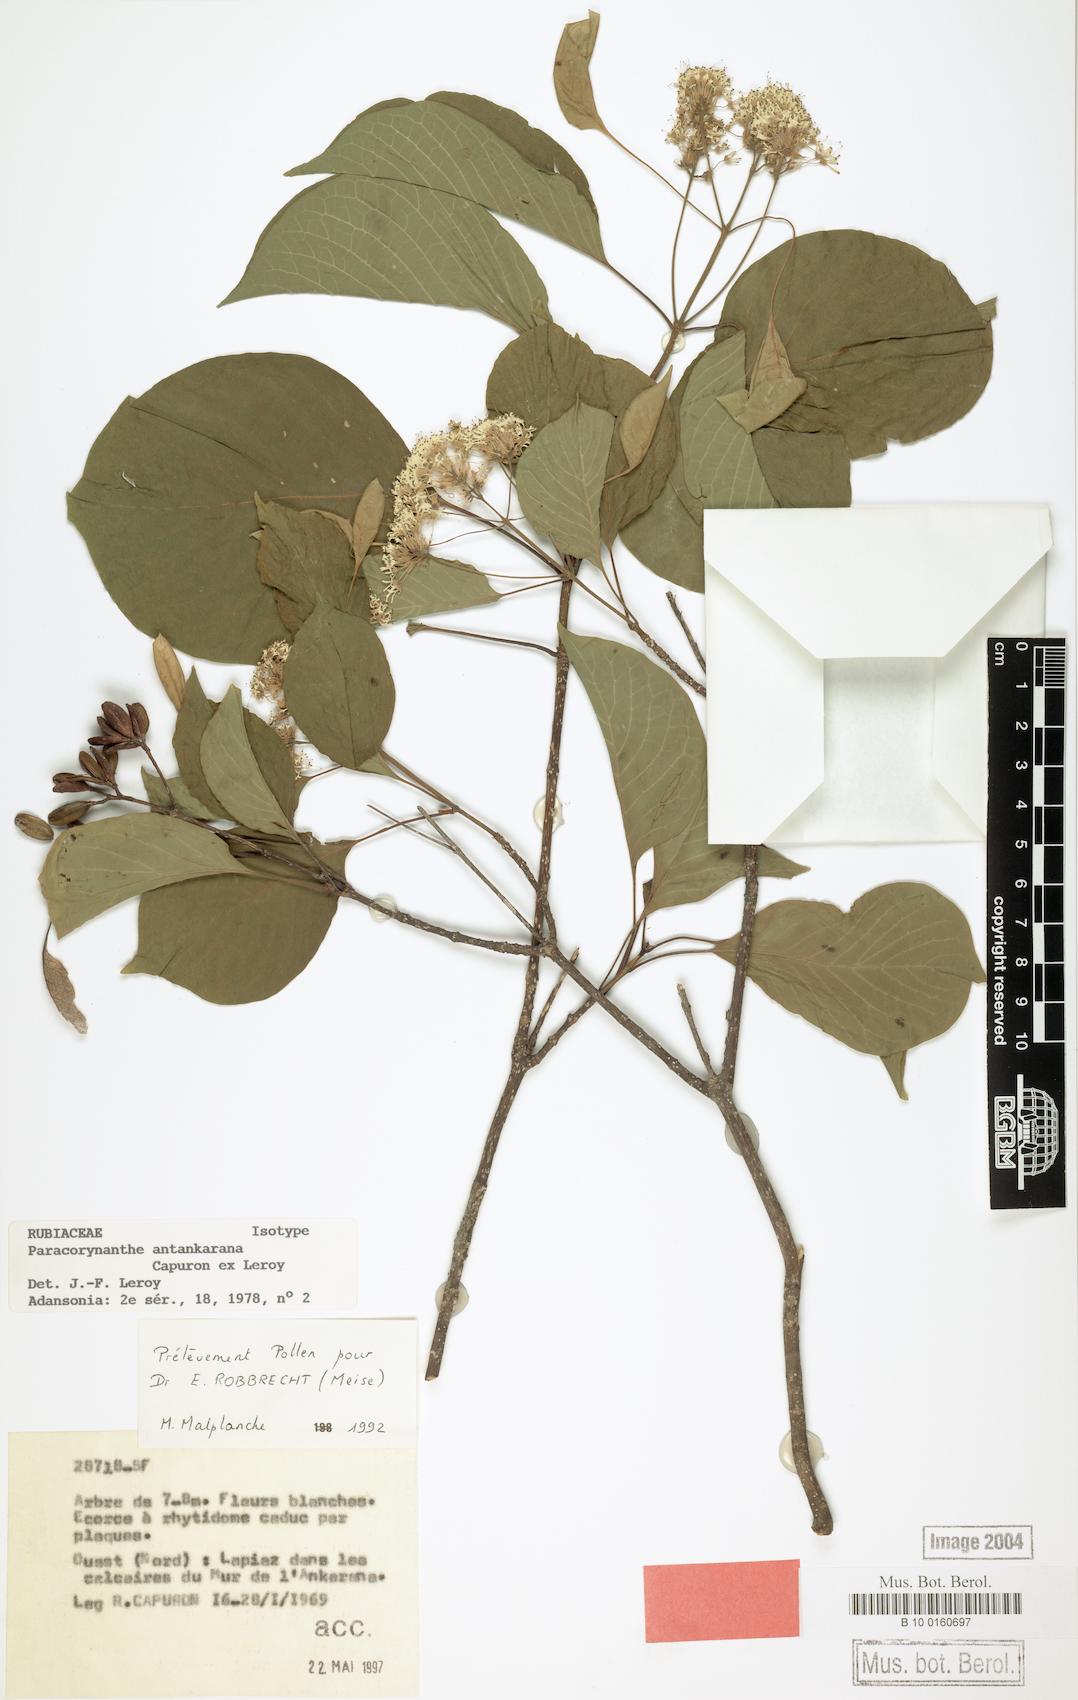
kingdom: Plantae
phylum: Tracheophyta
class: Magnoliopsida
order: Gentianales
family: Rubiaceae
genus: Paracorynanthe
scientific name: Paracorynanthe antankarana
